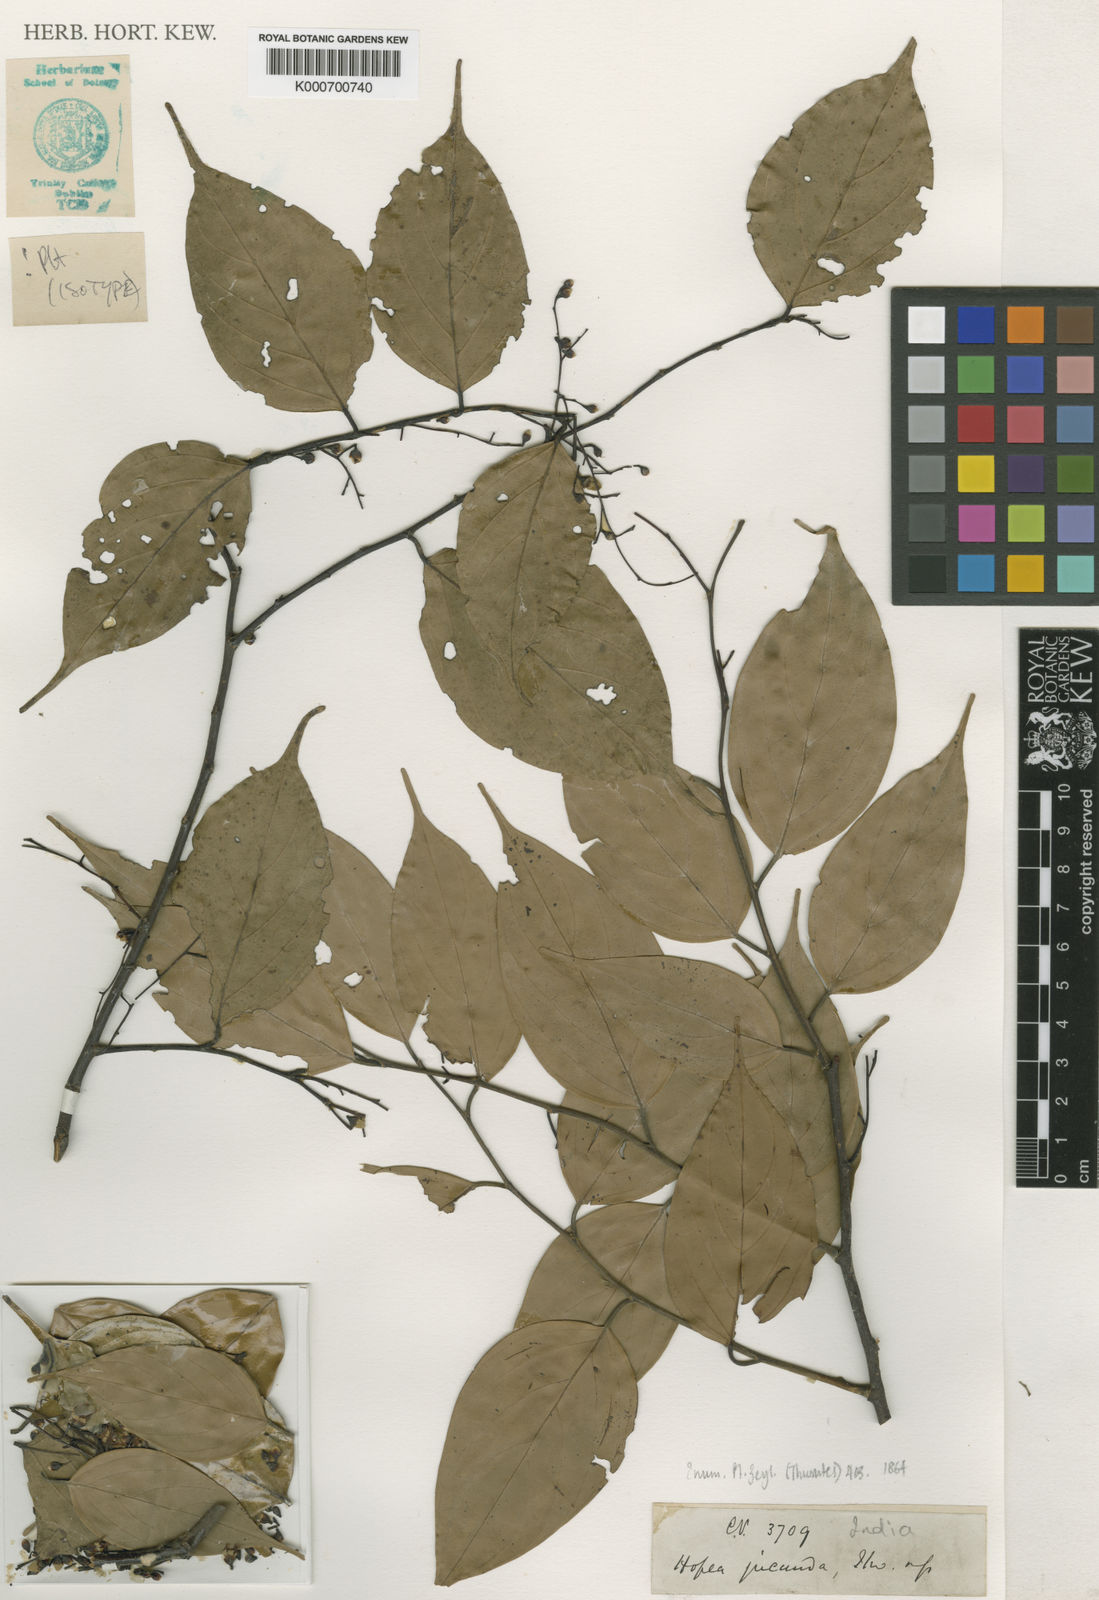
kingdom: Plantae
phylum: Tracheophyta
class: Magnoliopsida
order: Malvales
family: Dipterocarpaceae
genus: Hopea
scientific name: Hopea jucunda
